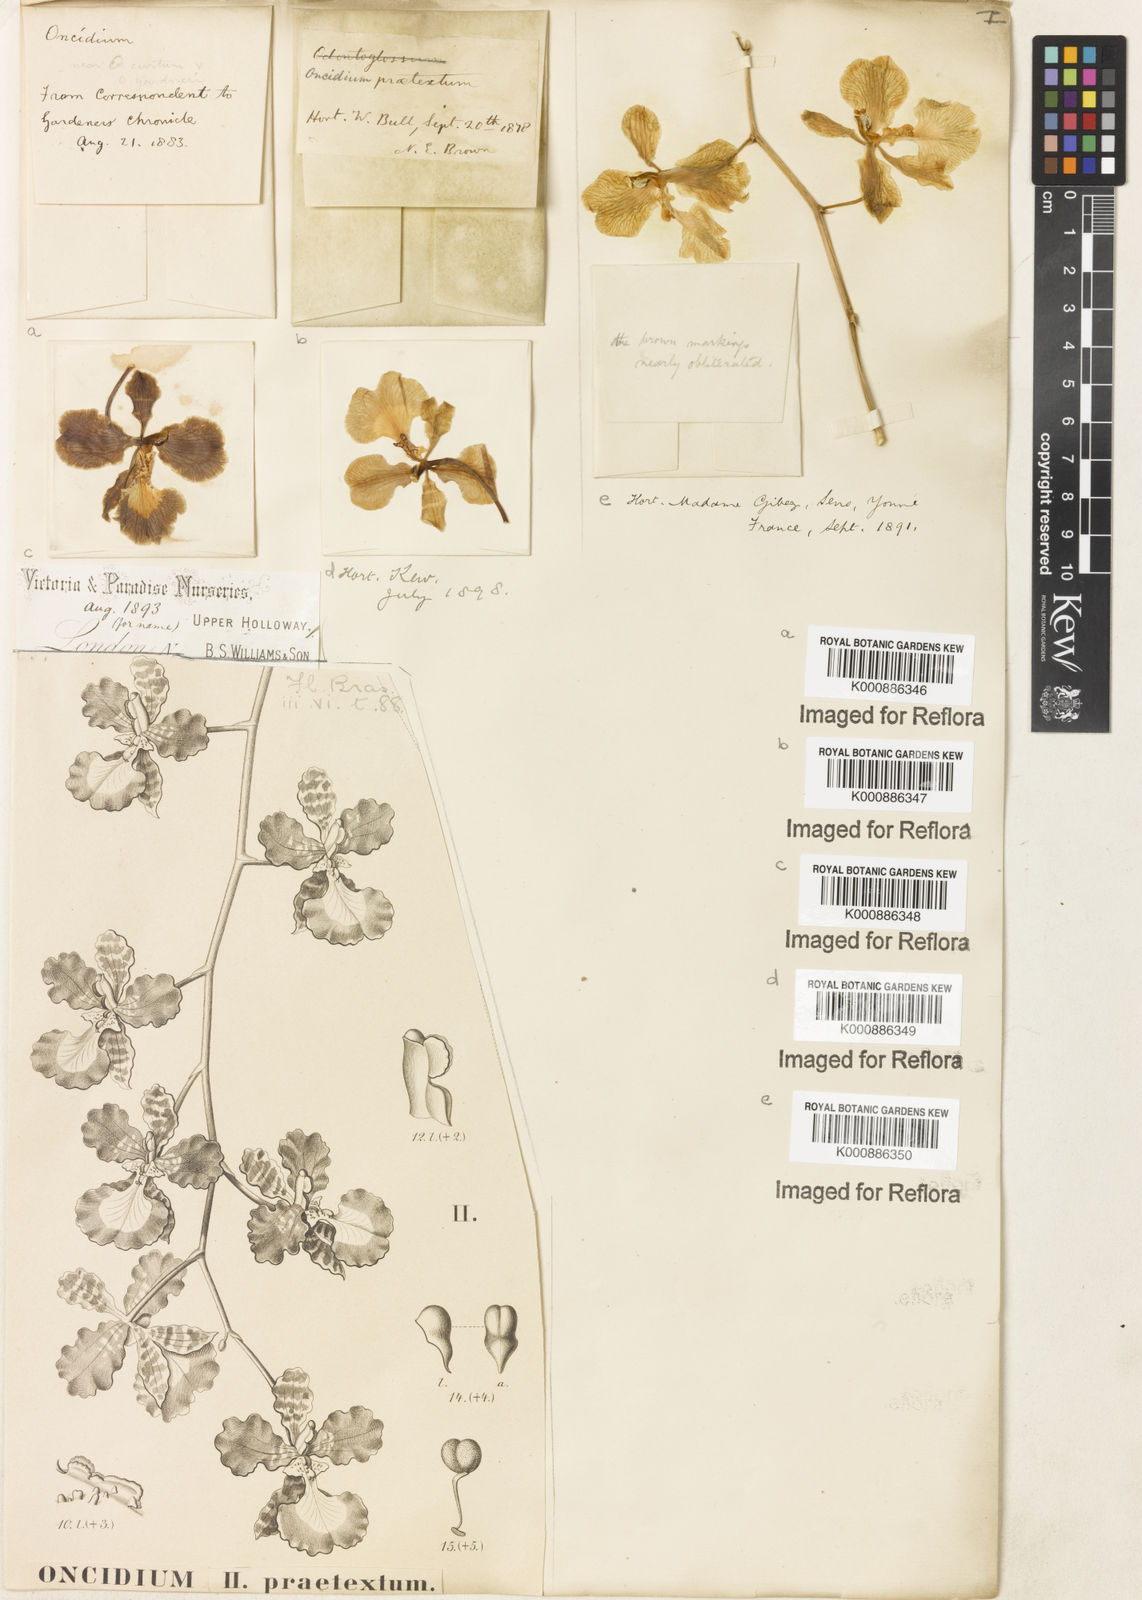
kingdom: Plantae
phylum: Tracheophyta
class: Liliopsida
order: Asparagales
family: Orchidaceae
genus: Gomesa
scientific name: Gomesa praetexta
